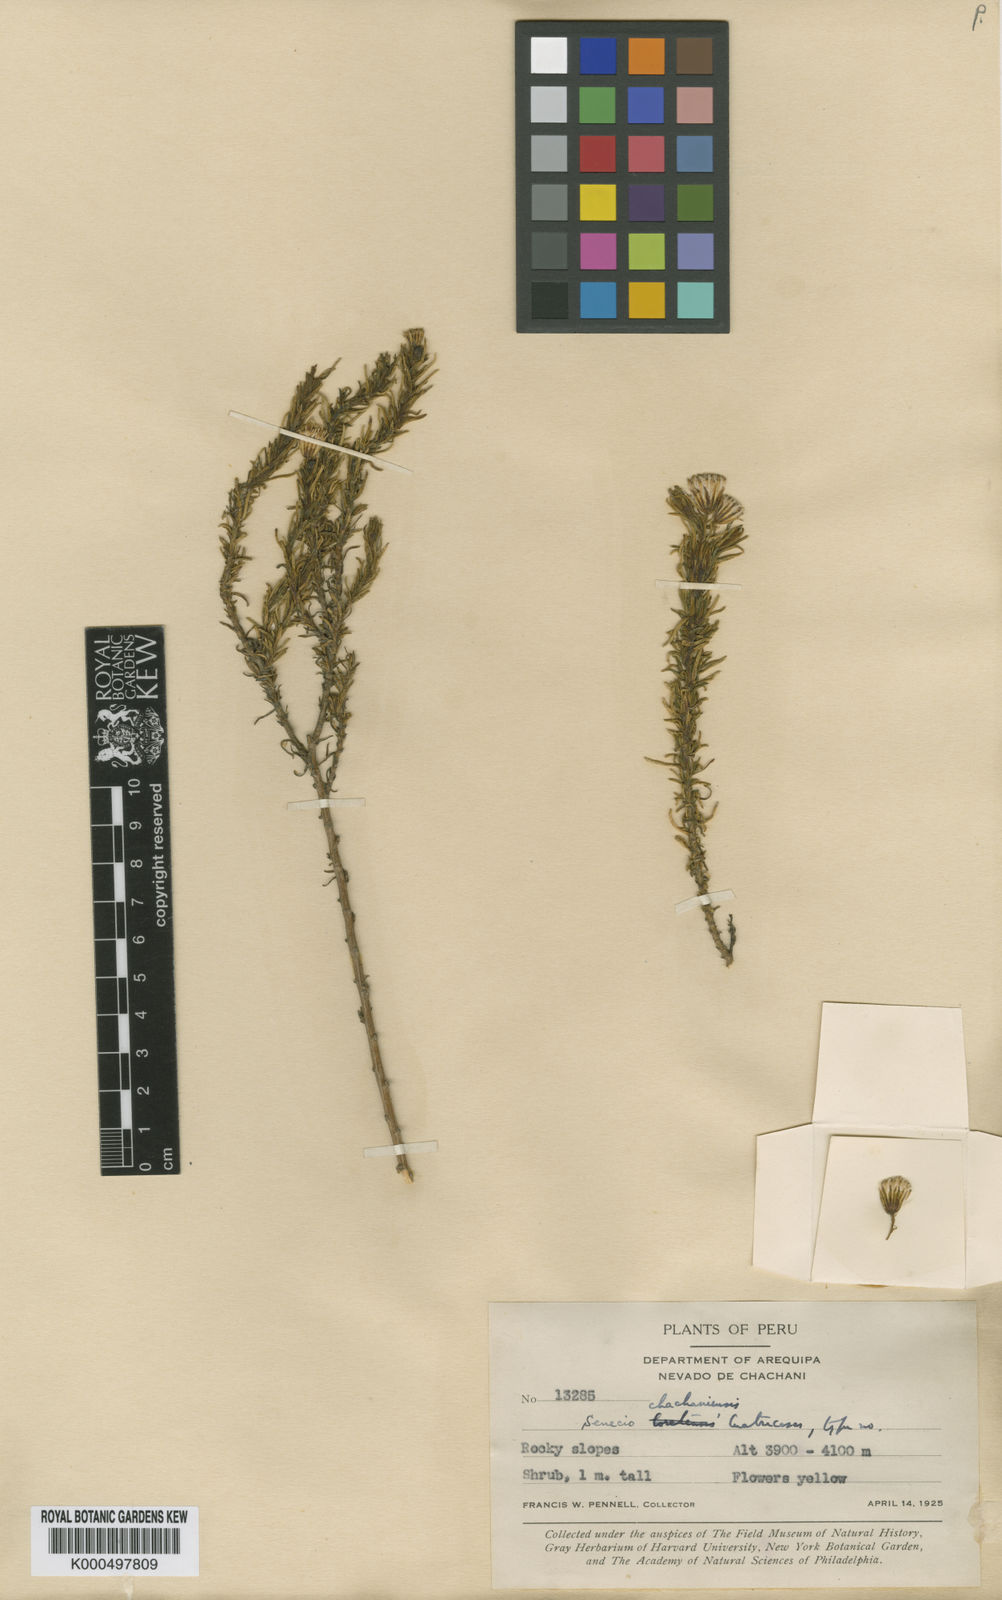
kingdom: Plantae
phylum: Tracheophyta
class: Magnoliopsida
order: Asterales
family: Asteraceae
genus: Senecio
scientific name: Senecio chachaniensis
